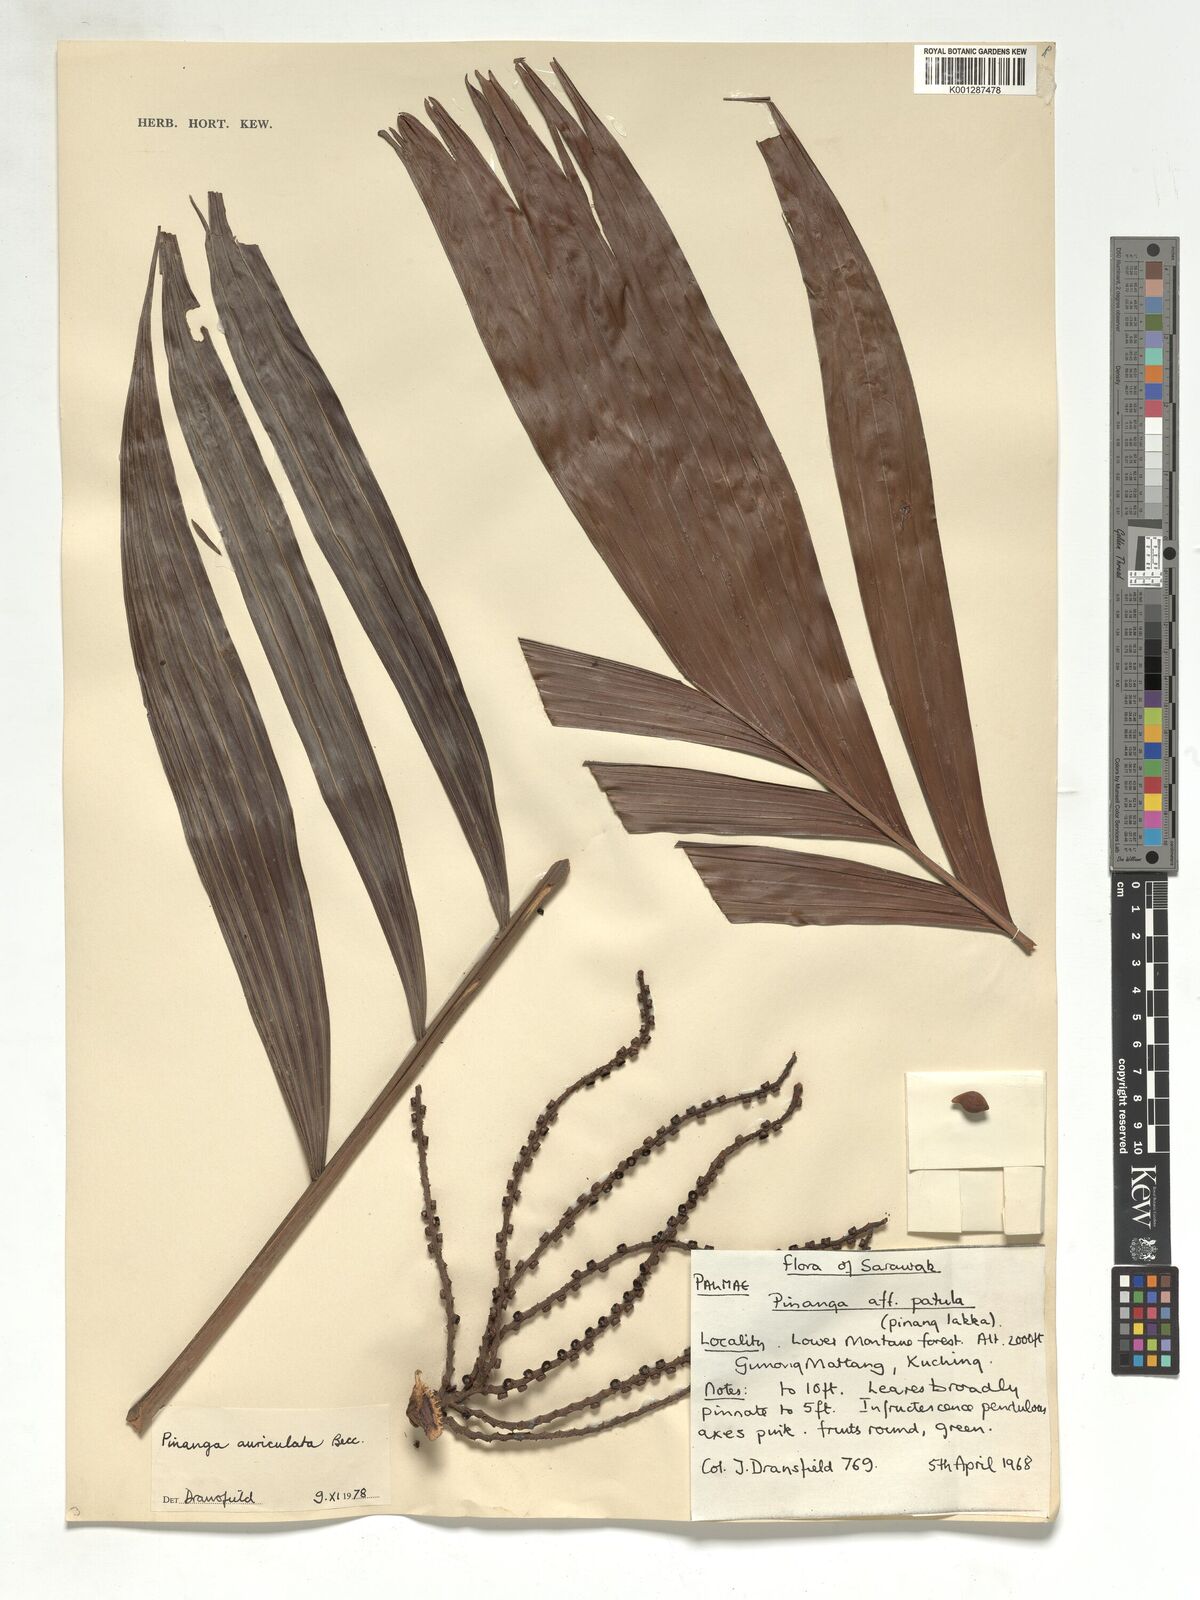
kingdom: Plantae
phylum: Tracheophyta
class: Liliopsida
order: Arecales
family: Arecaceae
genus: Pinanga
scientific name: Pinanga auriculata
